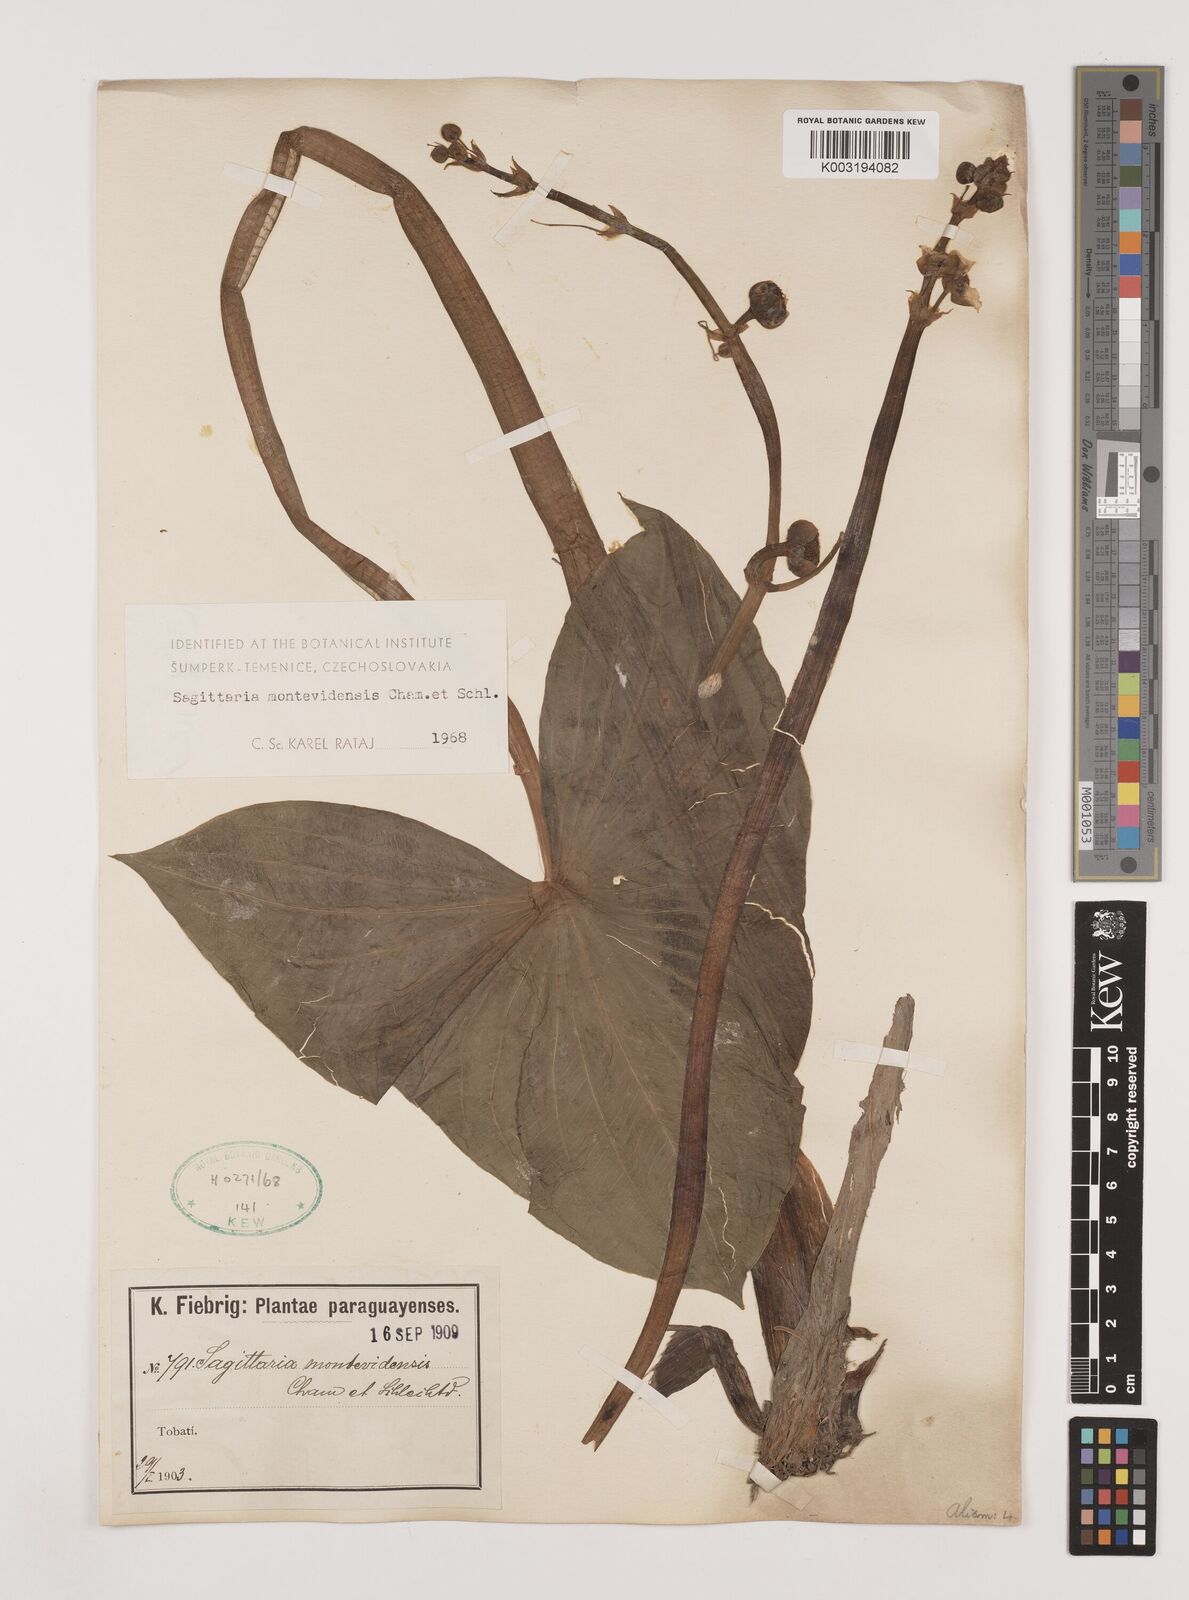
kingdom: Plantae
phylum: Tracheophyta
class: Liliopsida
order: Alismatales
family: Alismataceae
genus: Sagittaria
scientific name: Sagittaria montevidensis
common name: Giant arrowhead
